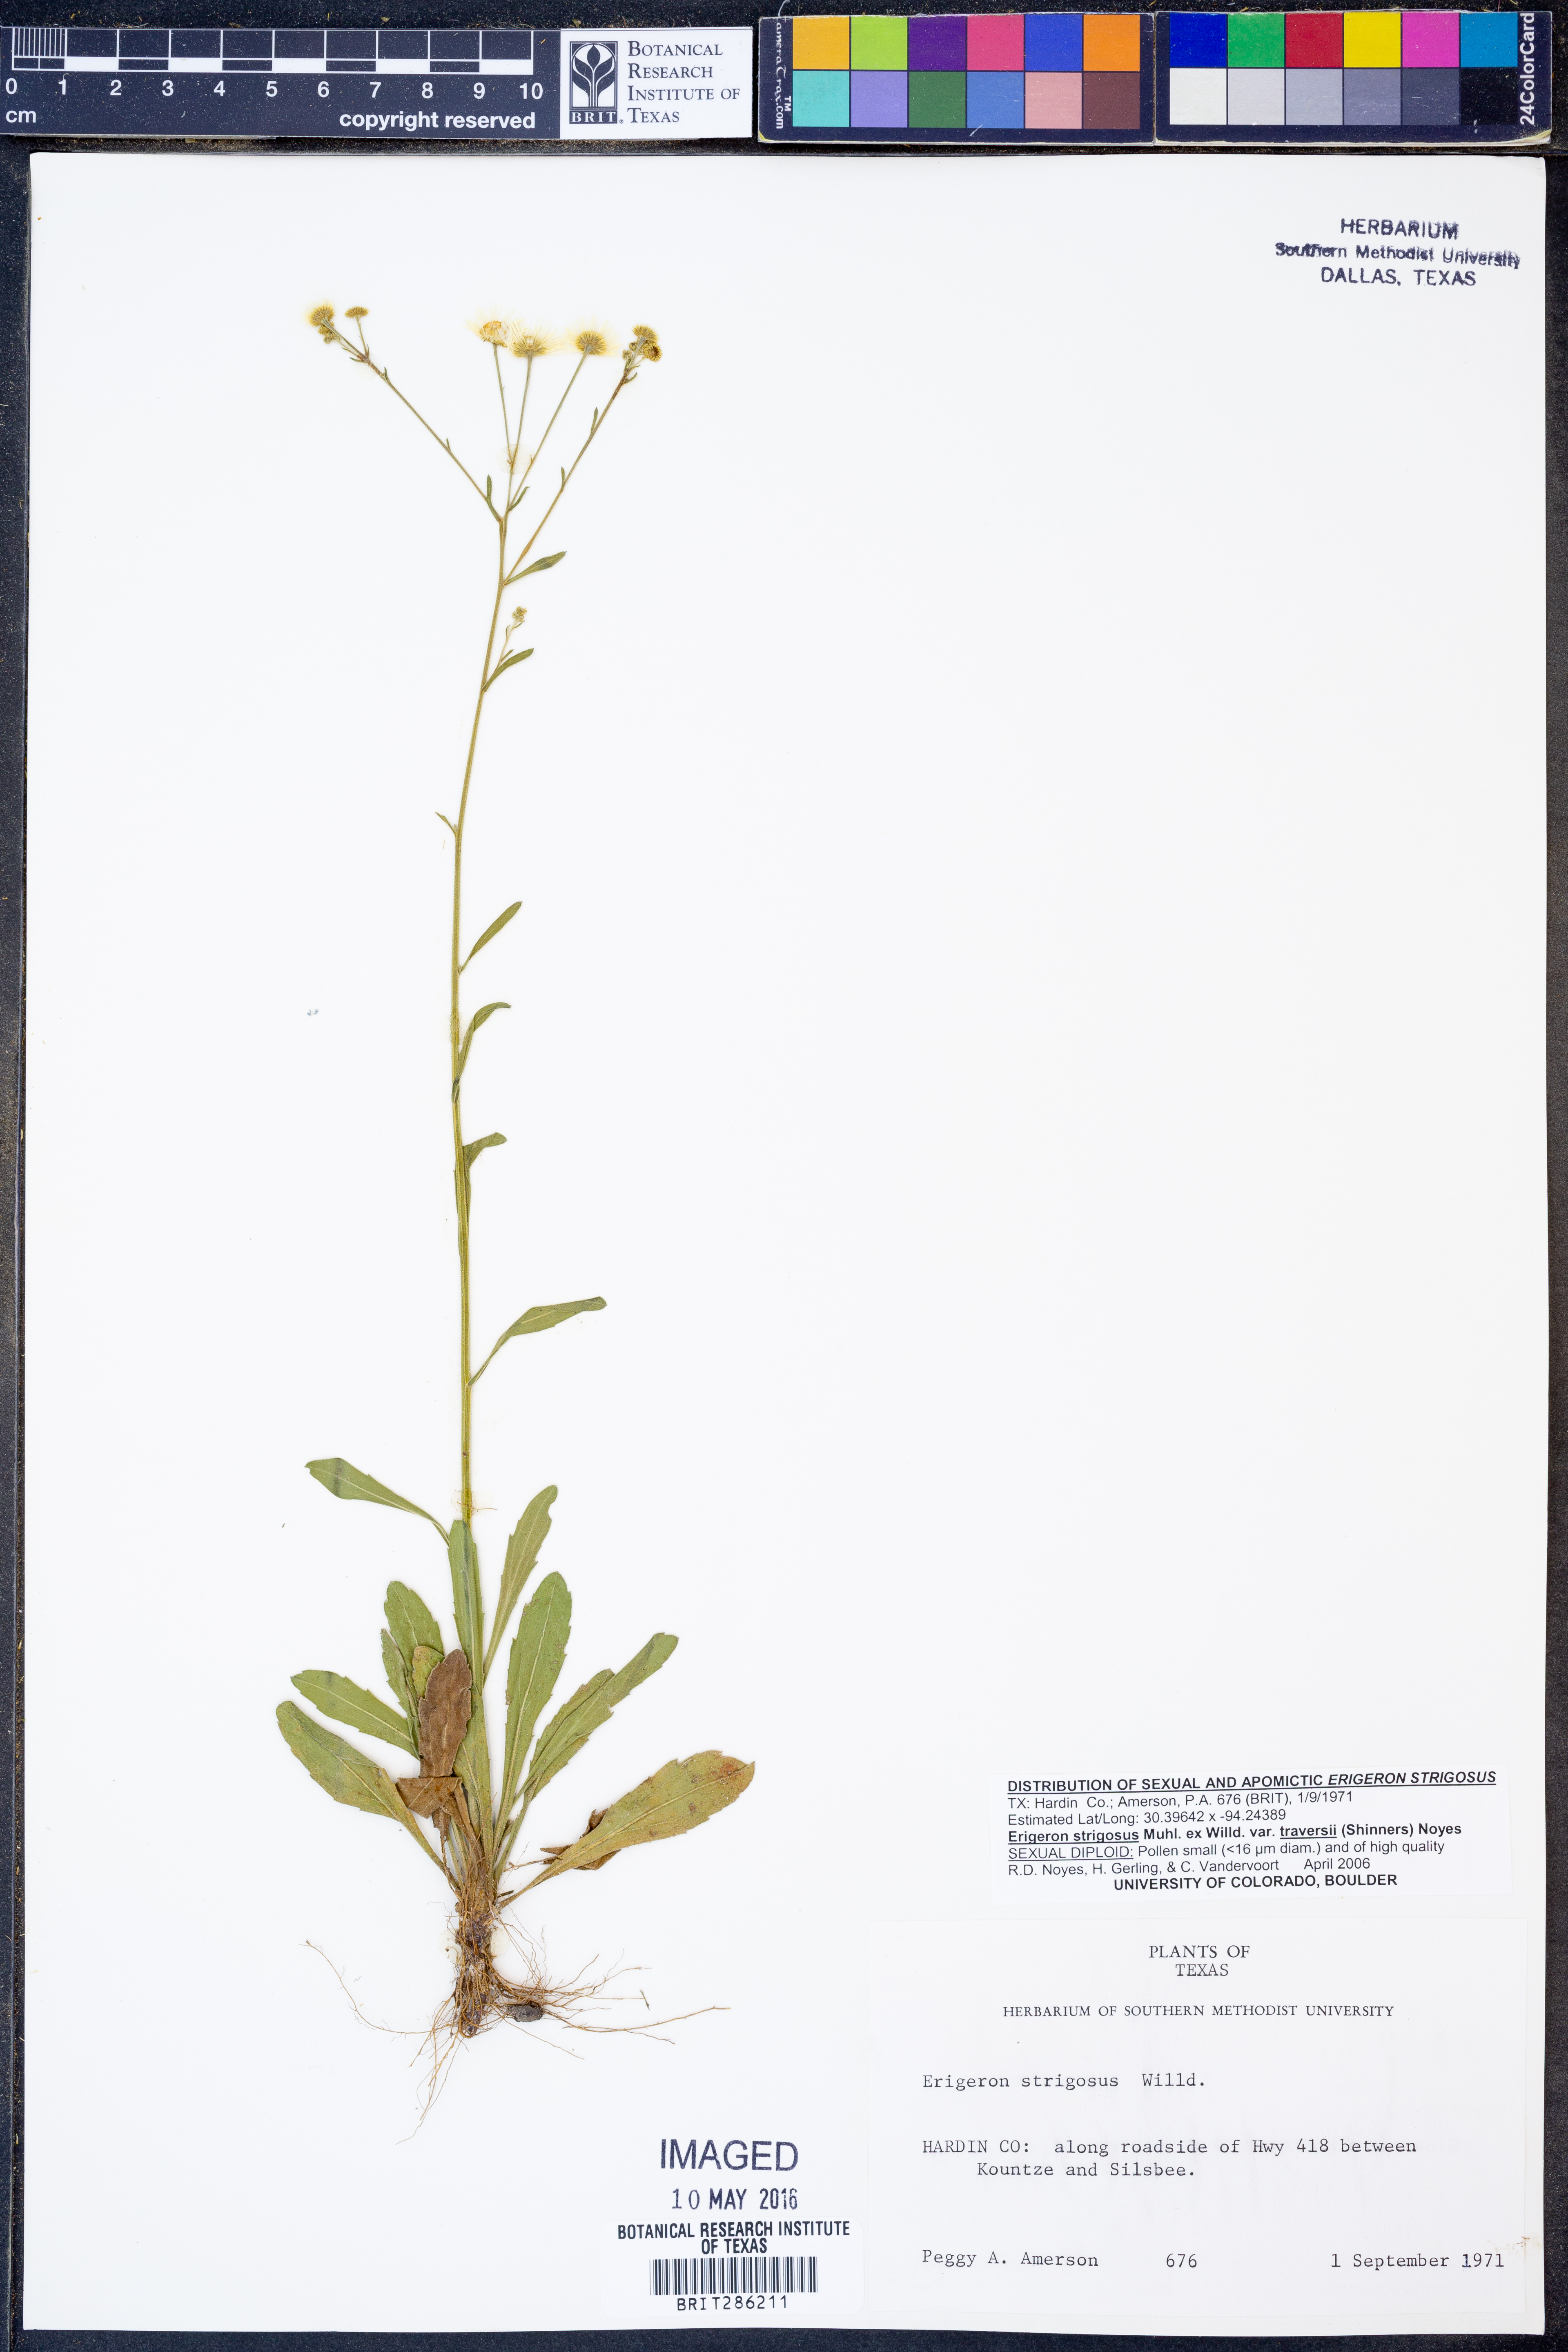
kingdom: Plantae
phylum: Tracheophyta
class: Magnoliopsida
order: Asterales
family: Asteraceae
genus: Erigeron
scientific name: Erigeron annuus
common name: Tall fleabane
